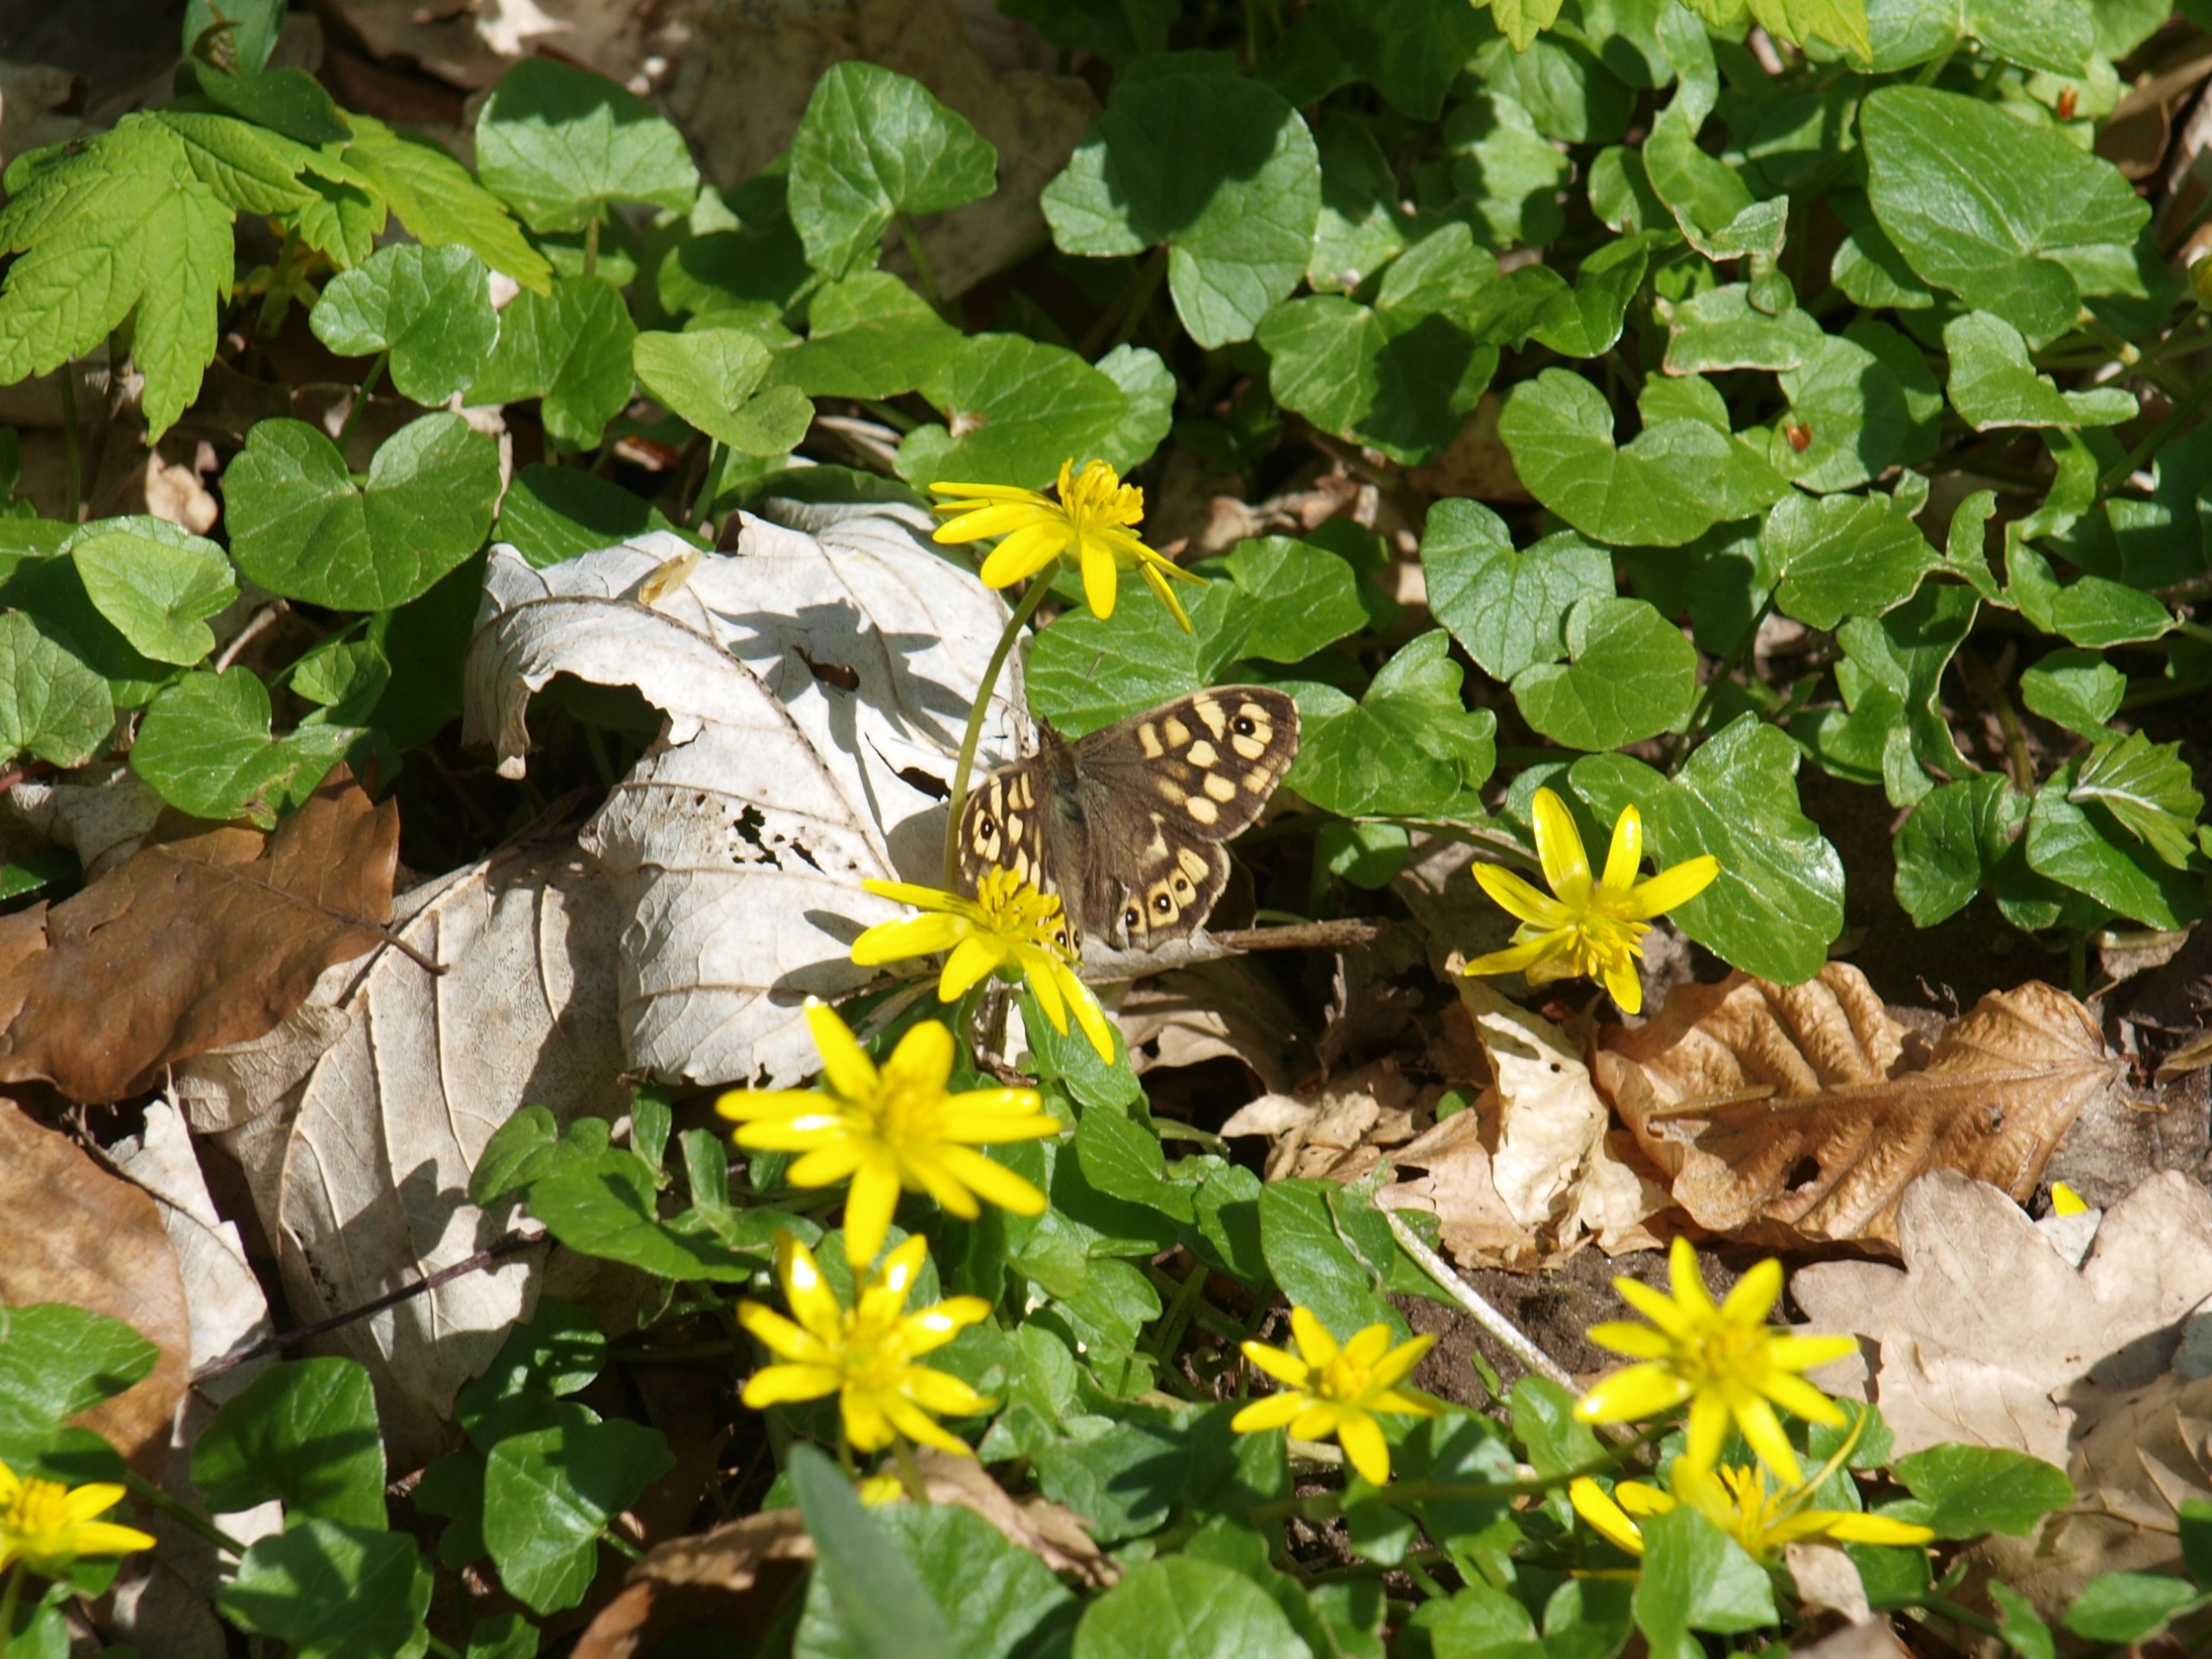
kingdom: Animalia
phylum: Arthropoda
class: Insecta
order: Lepidoptera
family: Nymphalidae
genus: Pararge
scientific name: Pararge aegeria
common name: Skovrandøje
